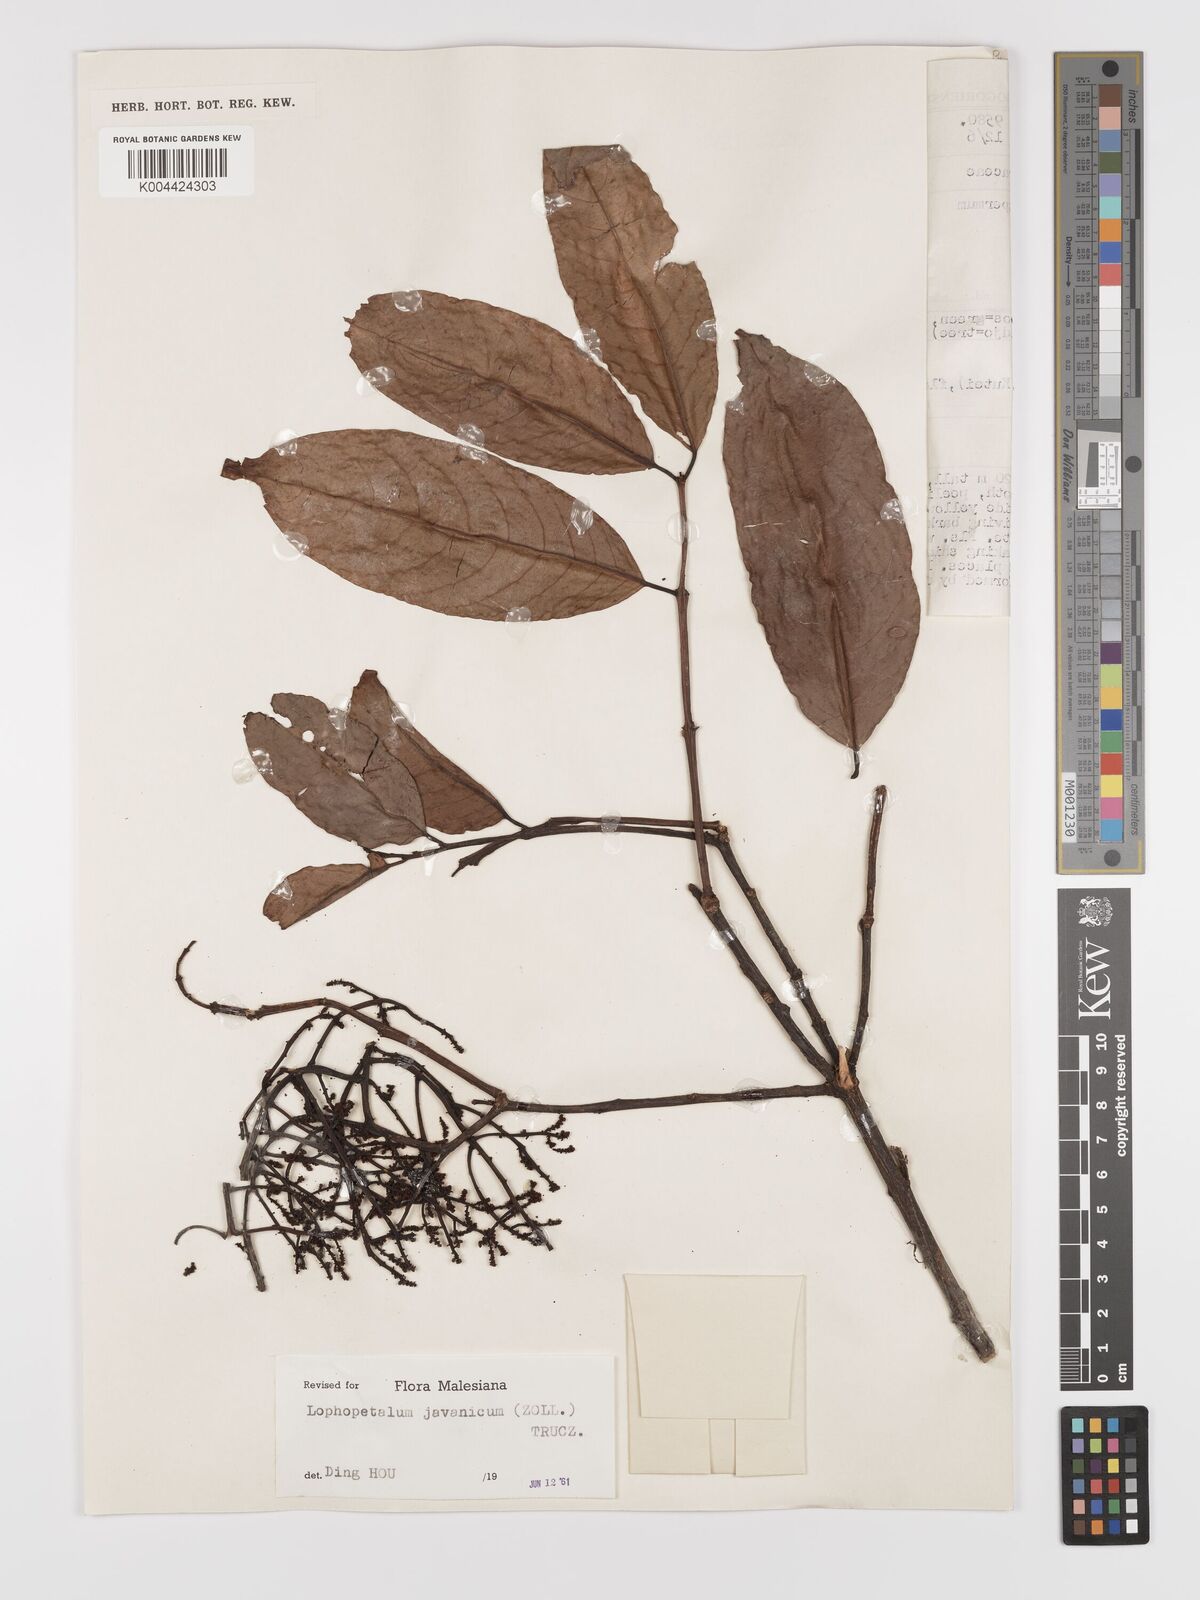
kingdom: Plantae
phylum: Tracheophyta
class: Magnoliopsida
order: Celastrales
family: Celastraceae
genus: Lophopetalum
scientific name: Lophopetalum javanicum
